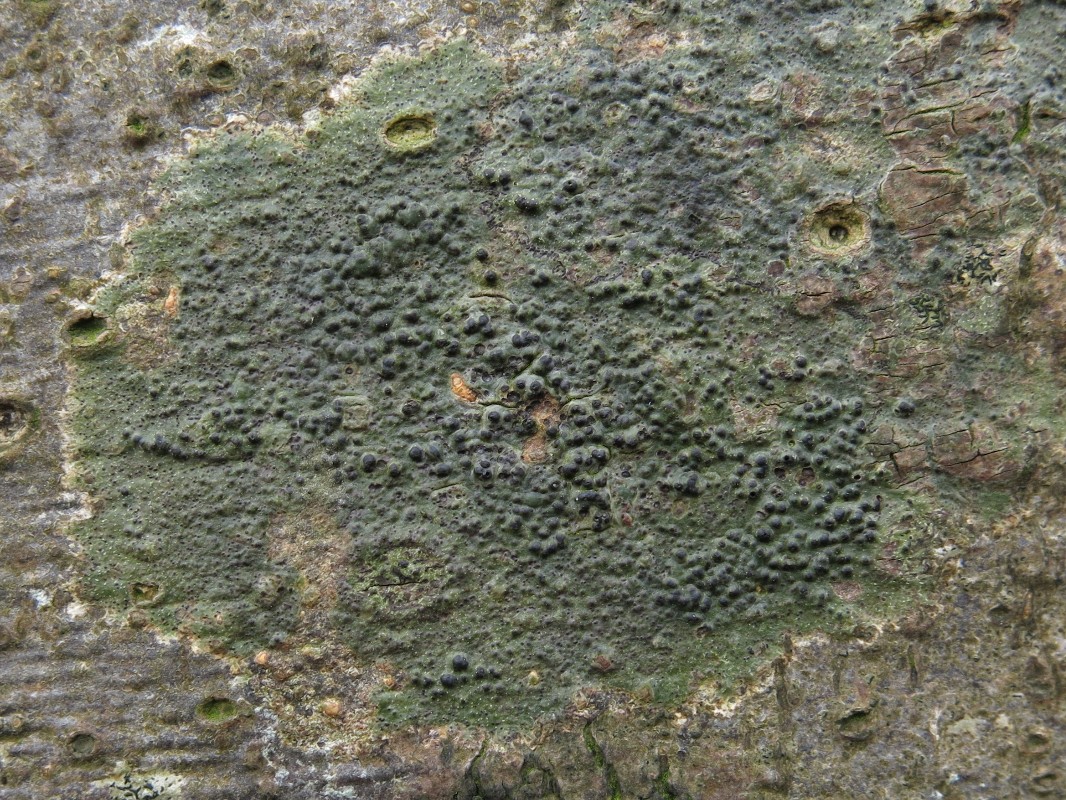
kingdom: Fungi
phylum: Ascomycota
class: Eurotiomycetes
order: Pyrenulales
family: Pyrenulaceae
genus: Pyrenula
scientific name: Pyrenula nitida
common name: glinsende kernelav
